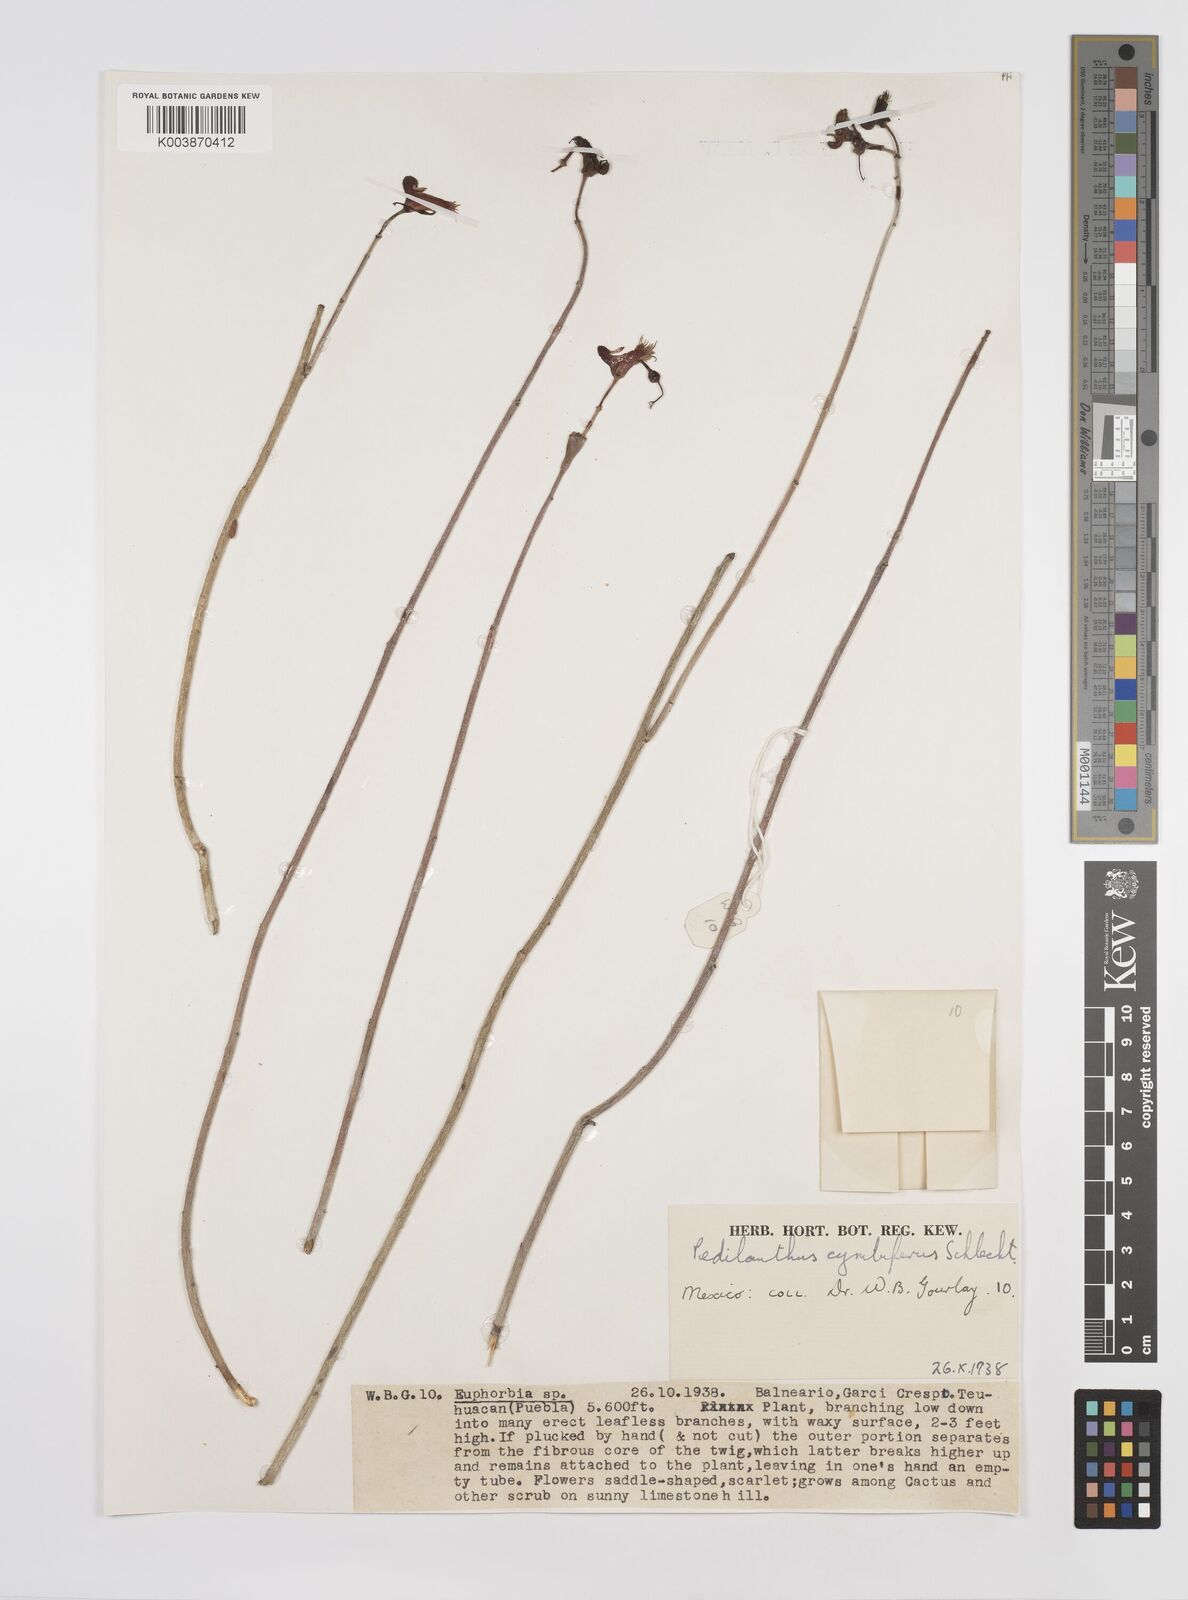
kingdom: Plantae
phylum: Tracheophyta
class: Magnoliopsida
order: Malpighiales
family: Euphorbiaceae
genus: Euphorbia
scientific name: Euphorbia cymbifera
